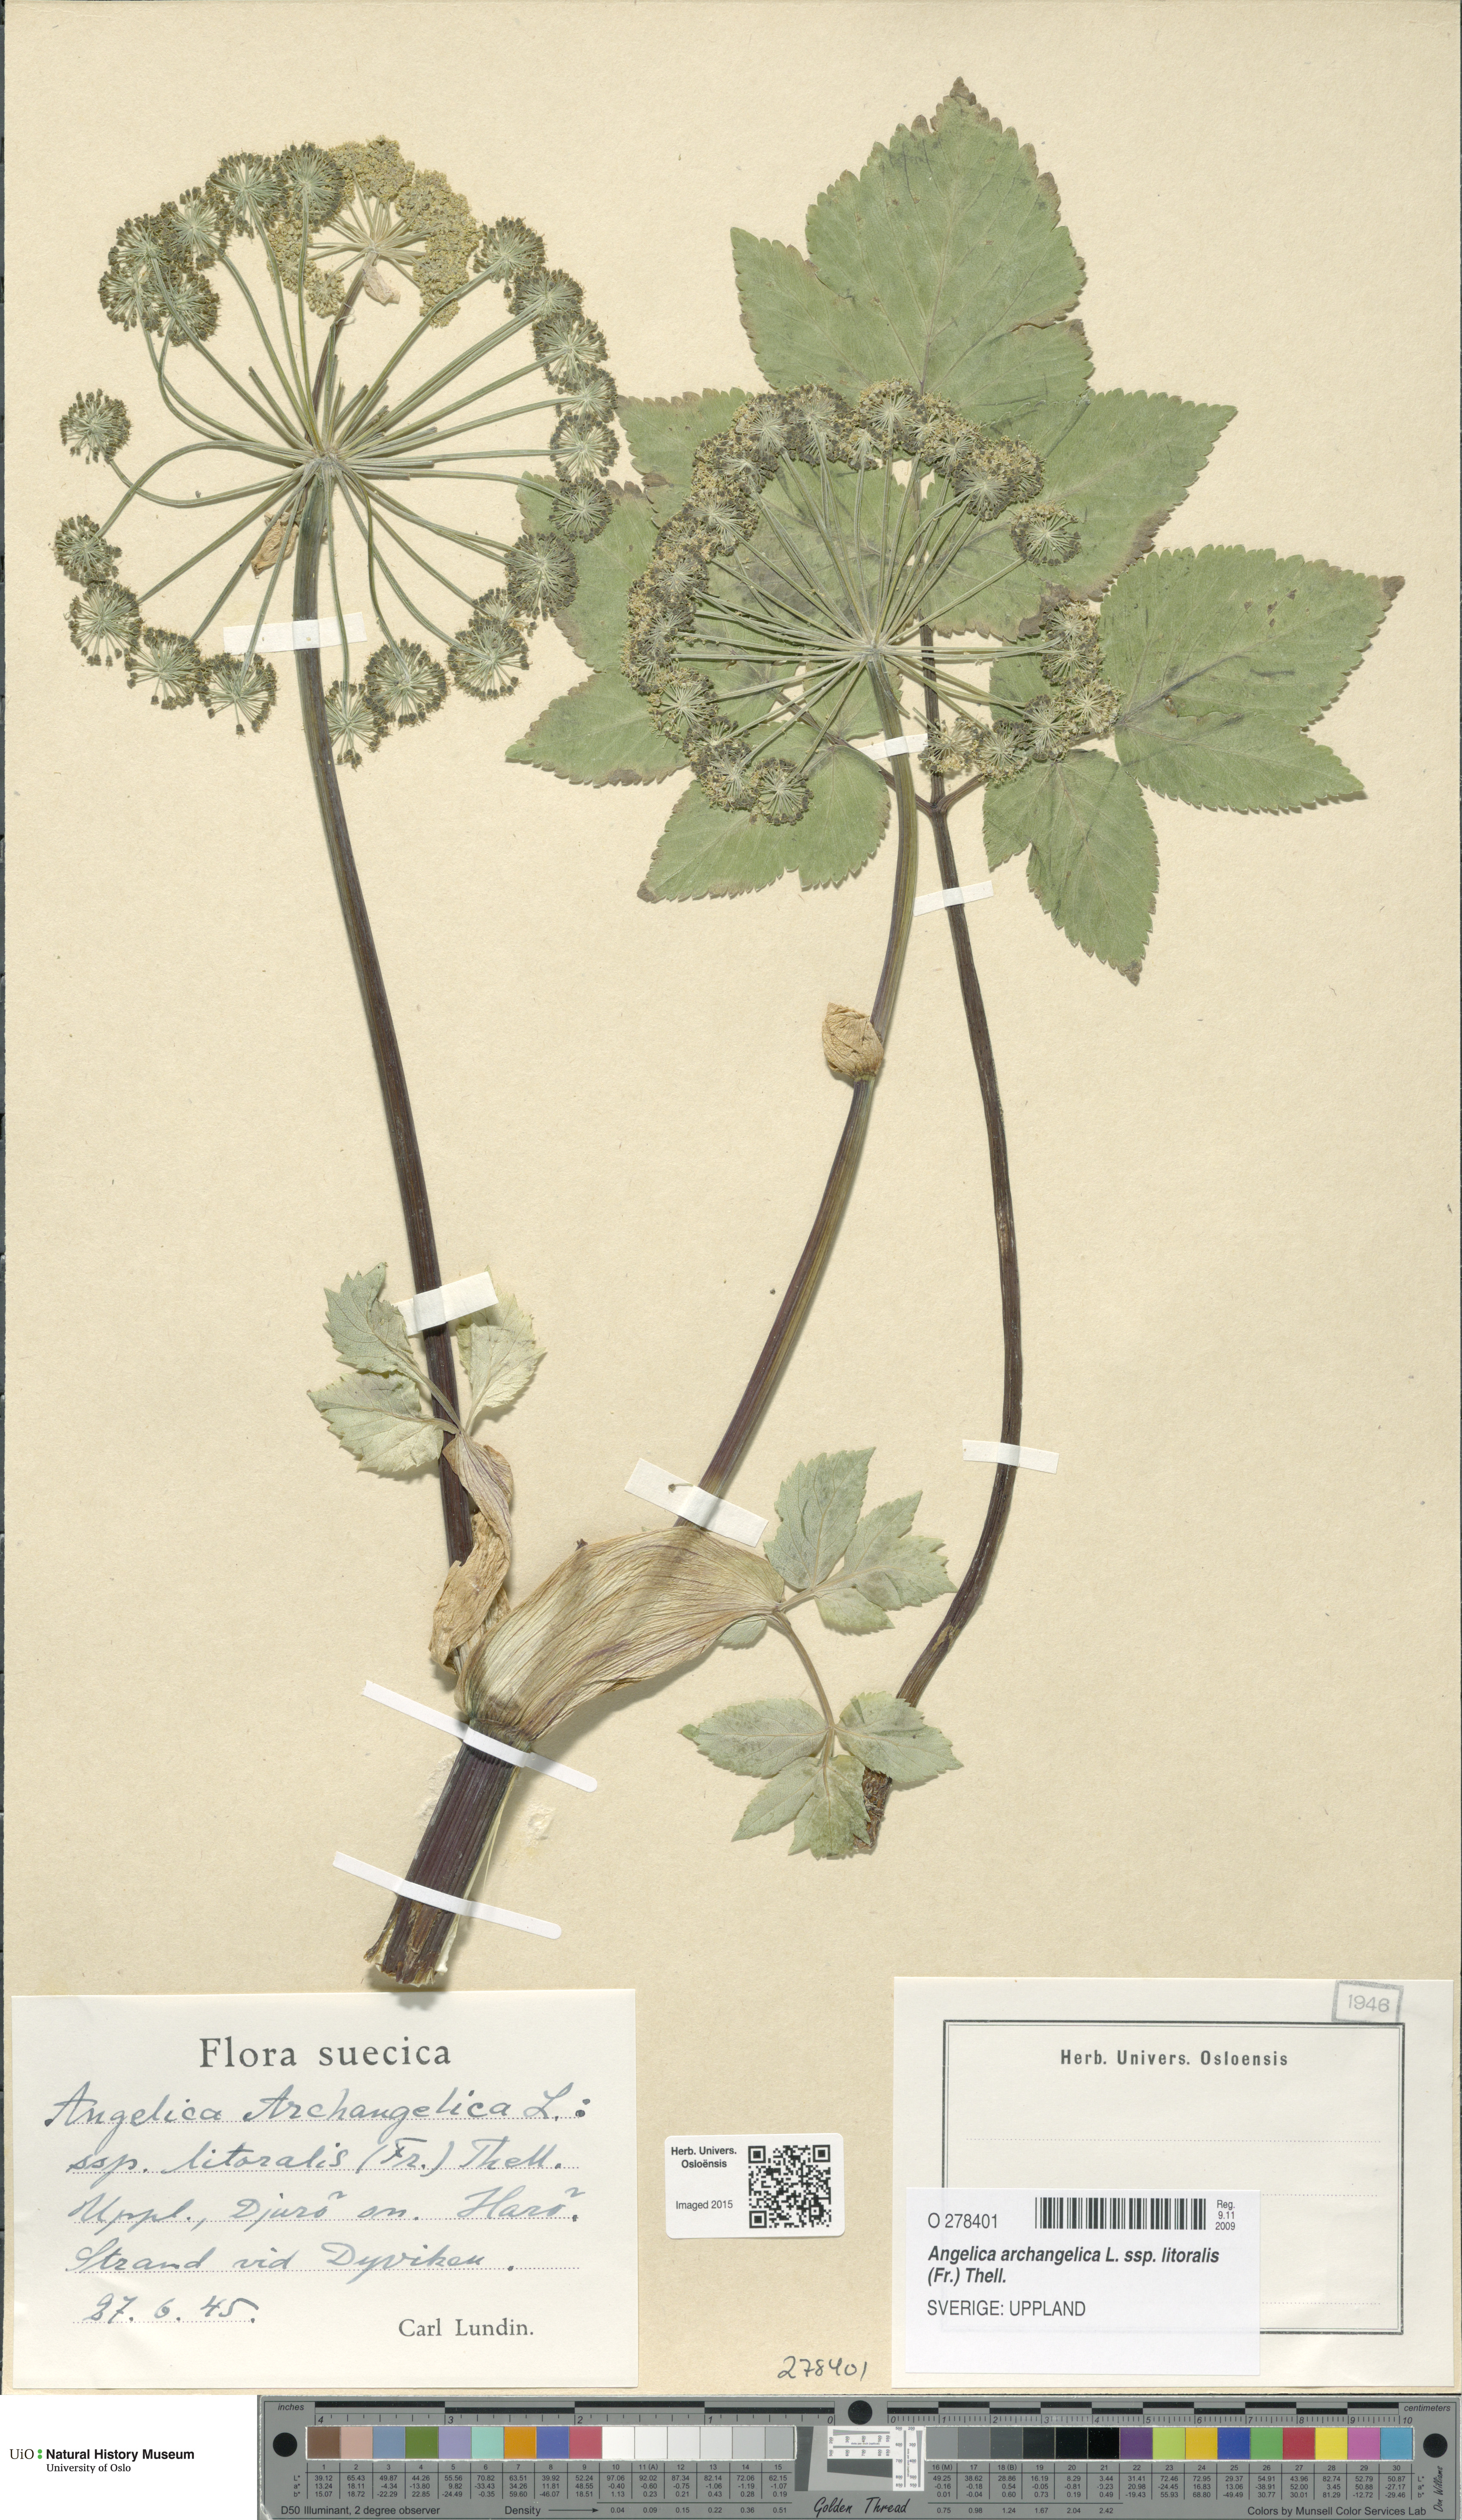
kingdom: Plantae
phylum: Tracheophyta
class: Magnoliopsida
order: Apiales
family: Apiaceae
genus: Angelica
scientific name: Angelica archangelica
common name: Garden angelica
